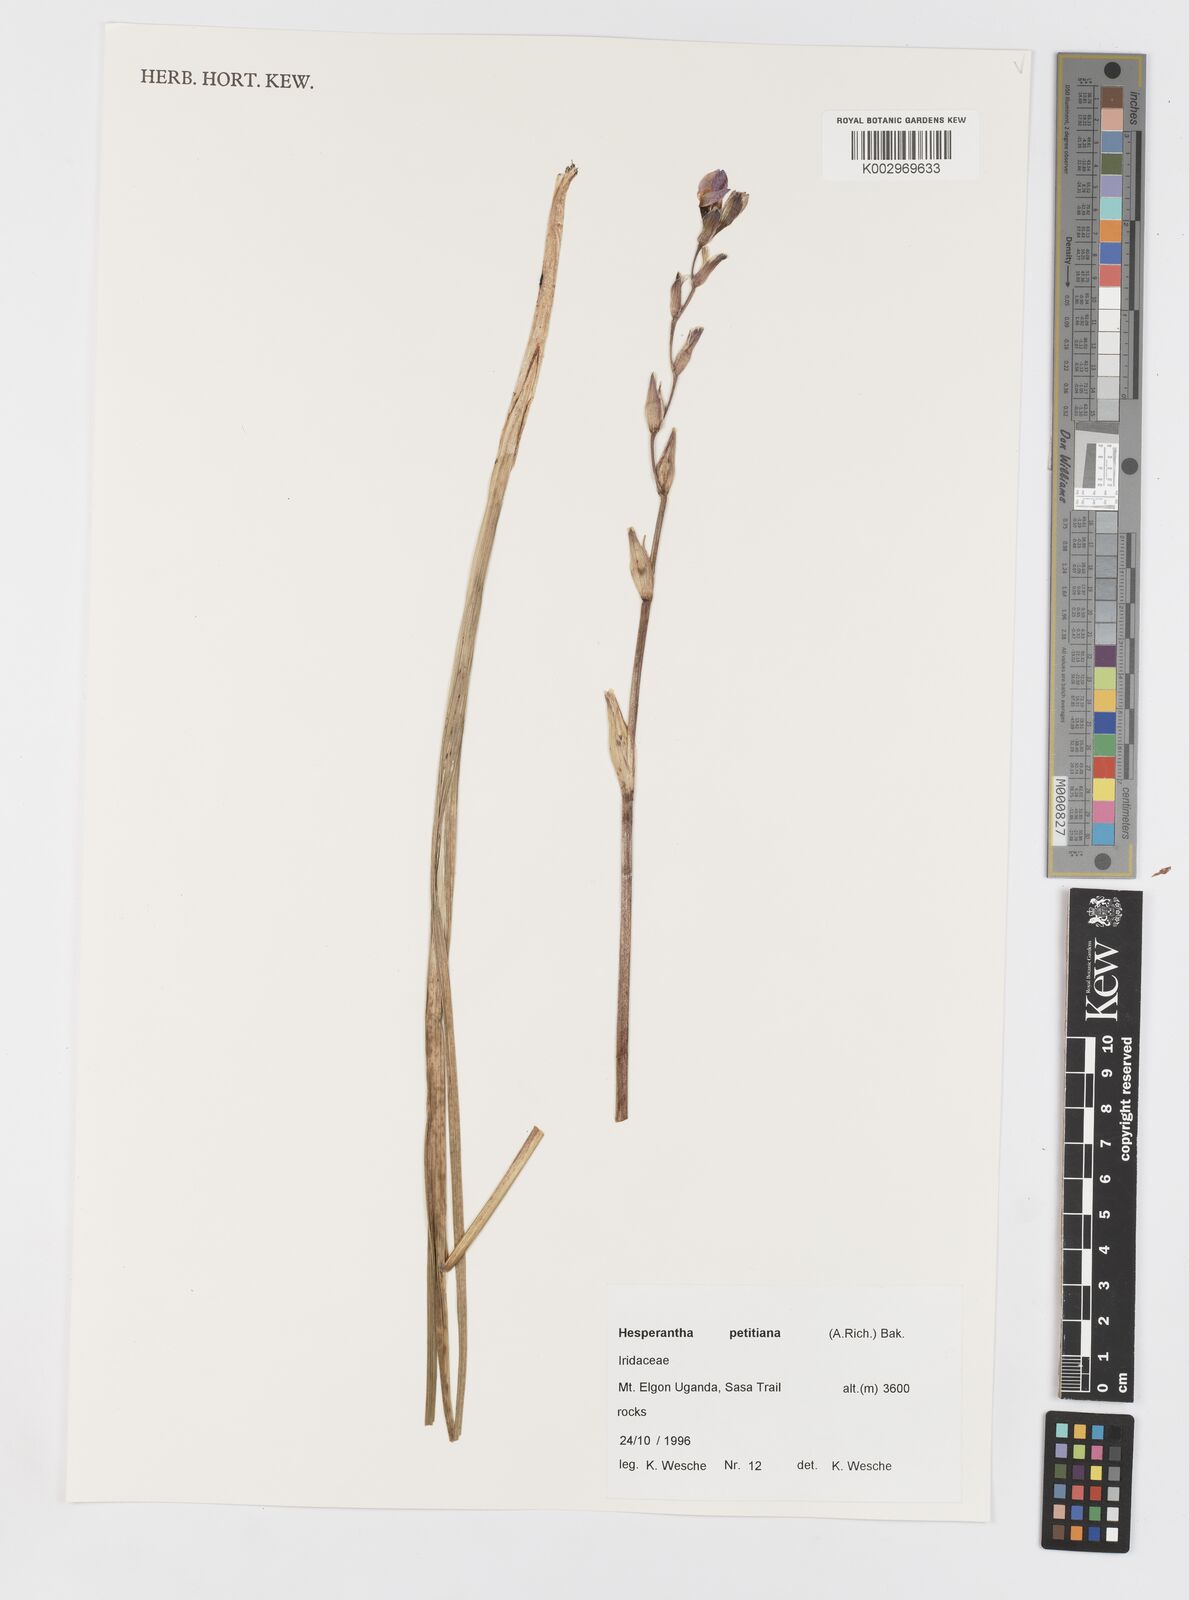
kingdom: Plantae
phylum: Tracheophyta
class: Liliopsida
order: Asparagales
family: Iridaceae
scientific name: Iridaceae
